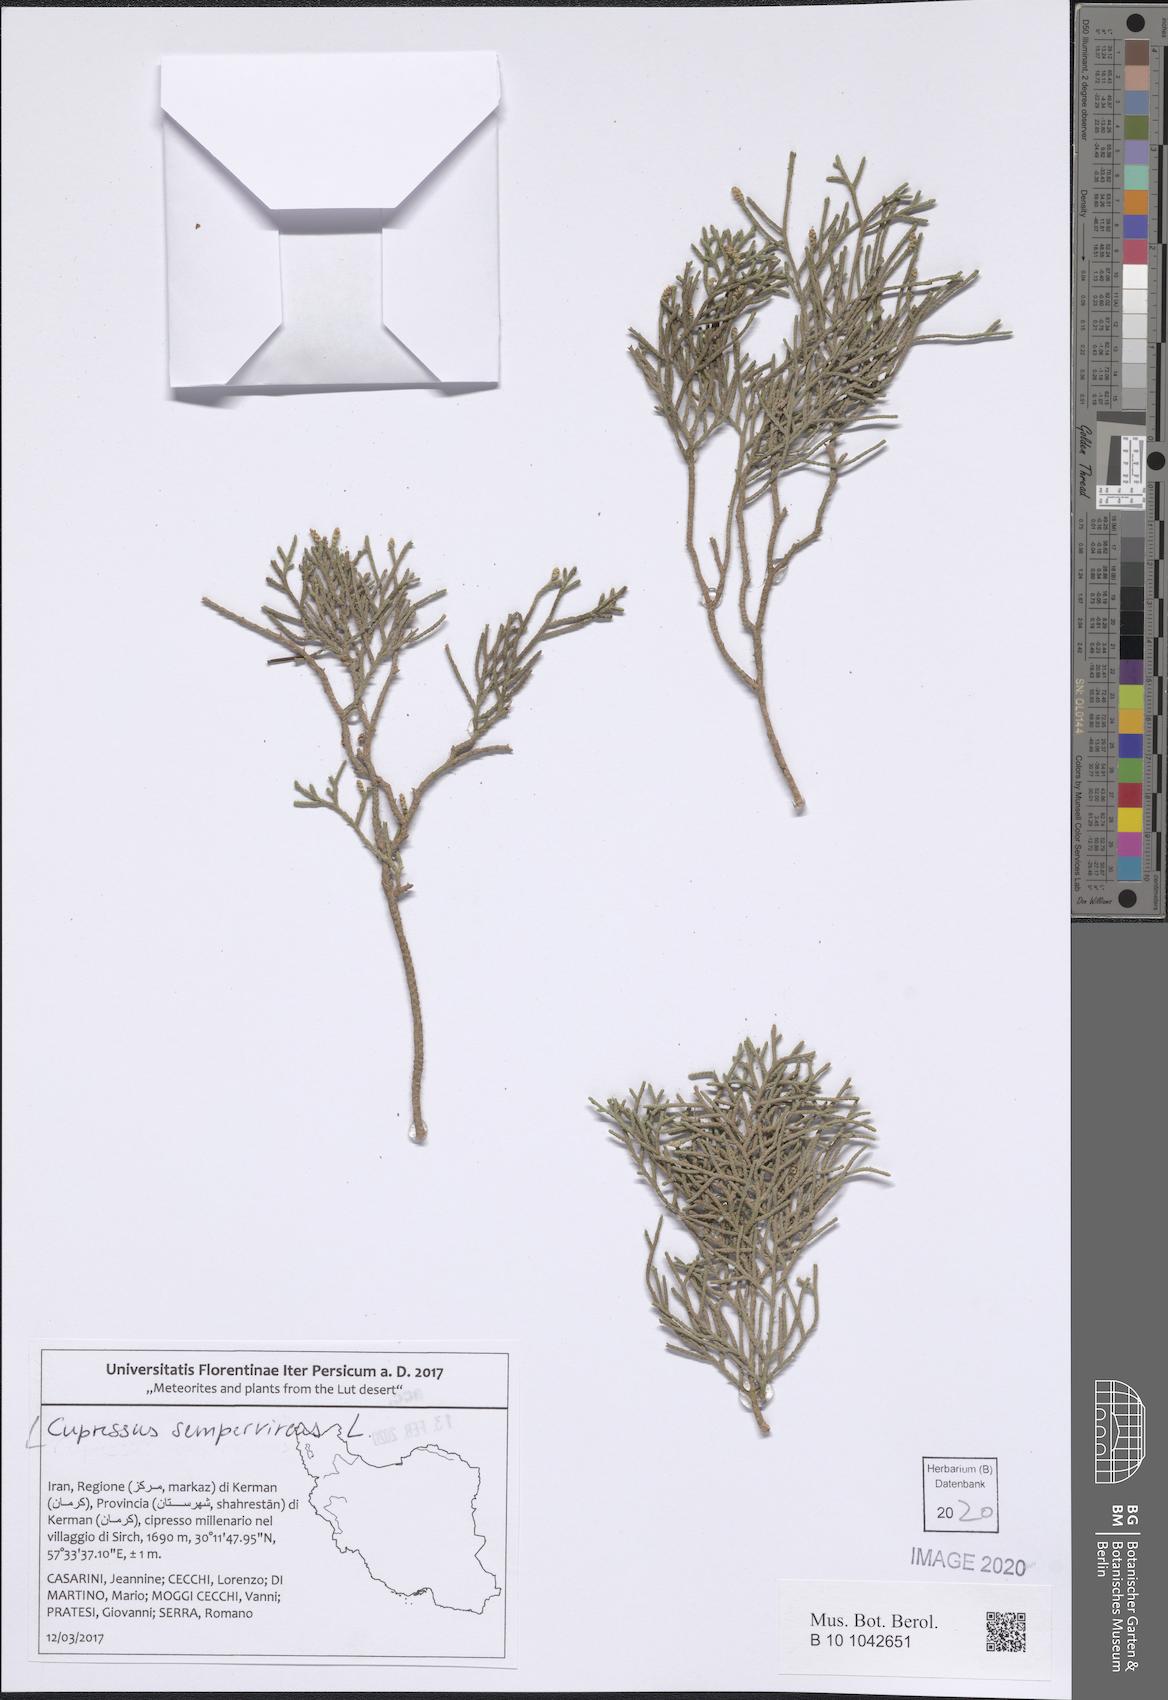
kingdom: Plantae
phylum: Tracheophyta
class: Pinopsida
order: Pinales
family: Cupressaceae
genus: Cupressus
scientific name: Cupressus sempervirens
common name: Italian cypress
